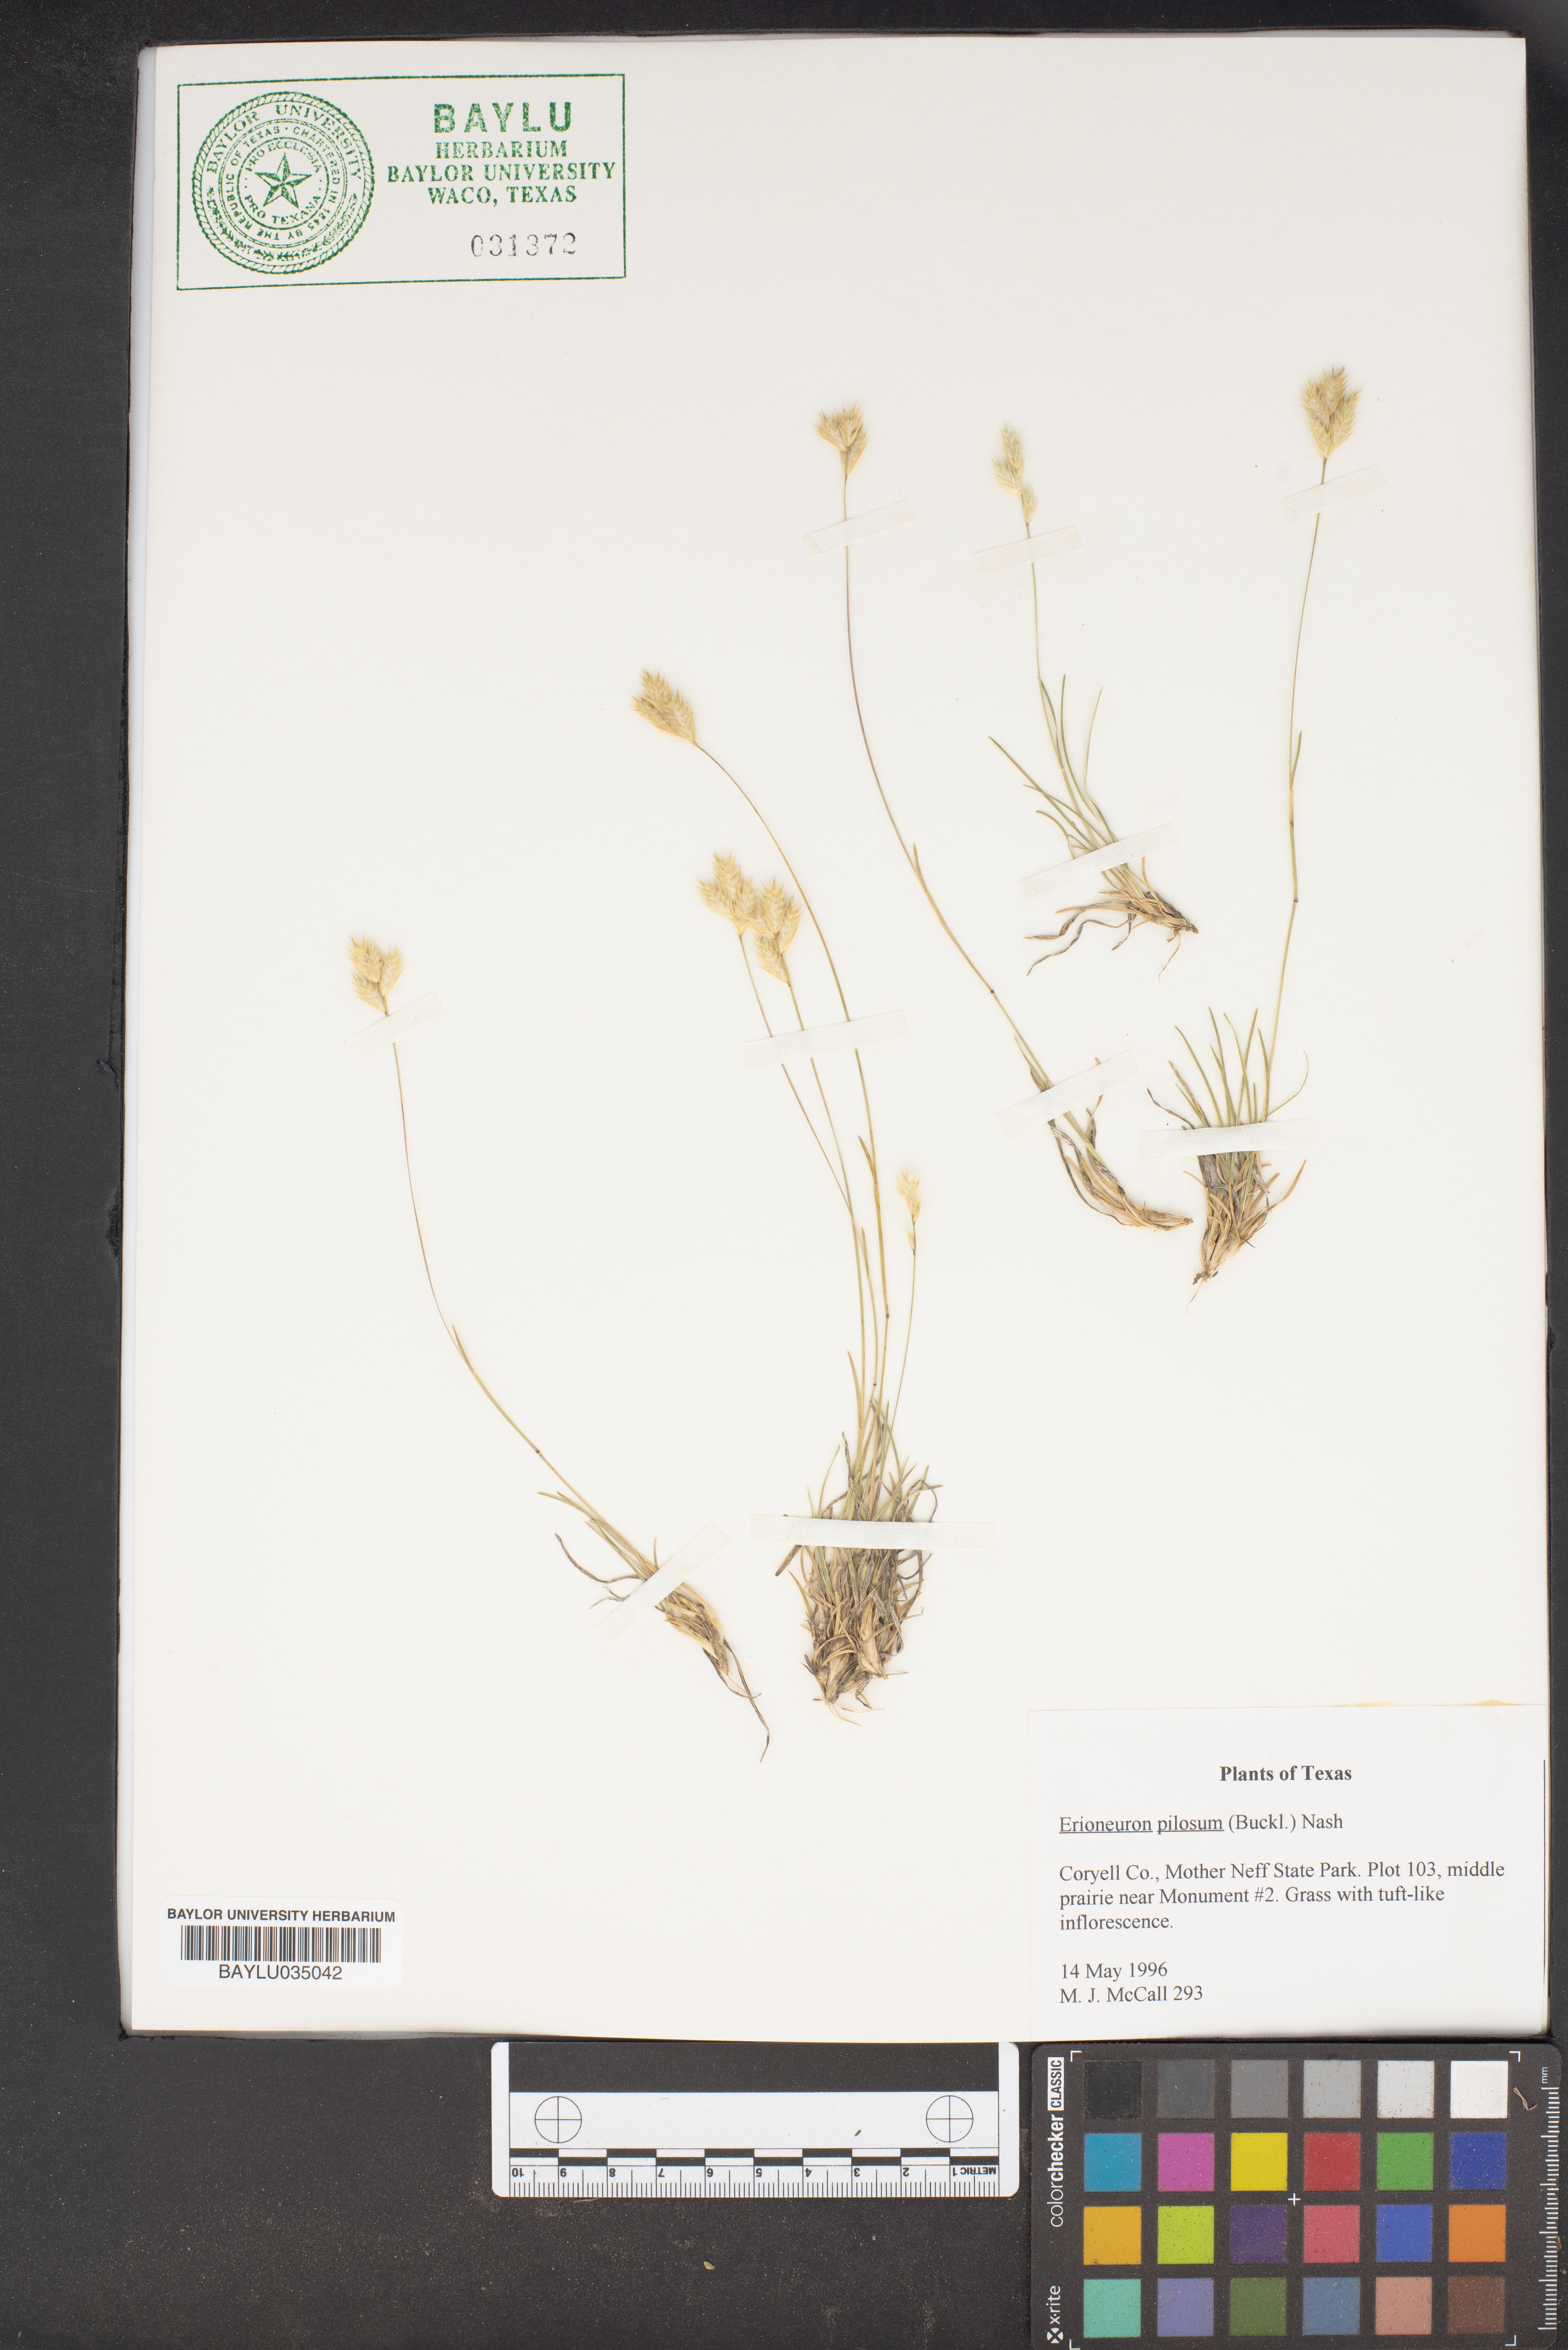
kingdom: Plantae
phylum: Tracheophyta
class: Liliopsida
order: Poales
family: Poaceae
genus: Erioneuron
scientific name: Erioneuron pilosum
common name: Hairy woolly grass
